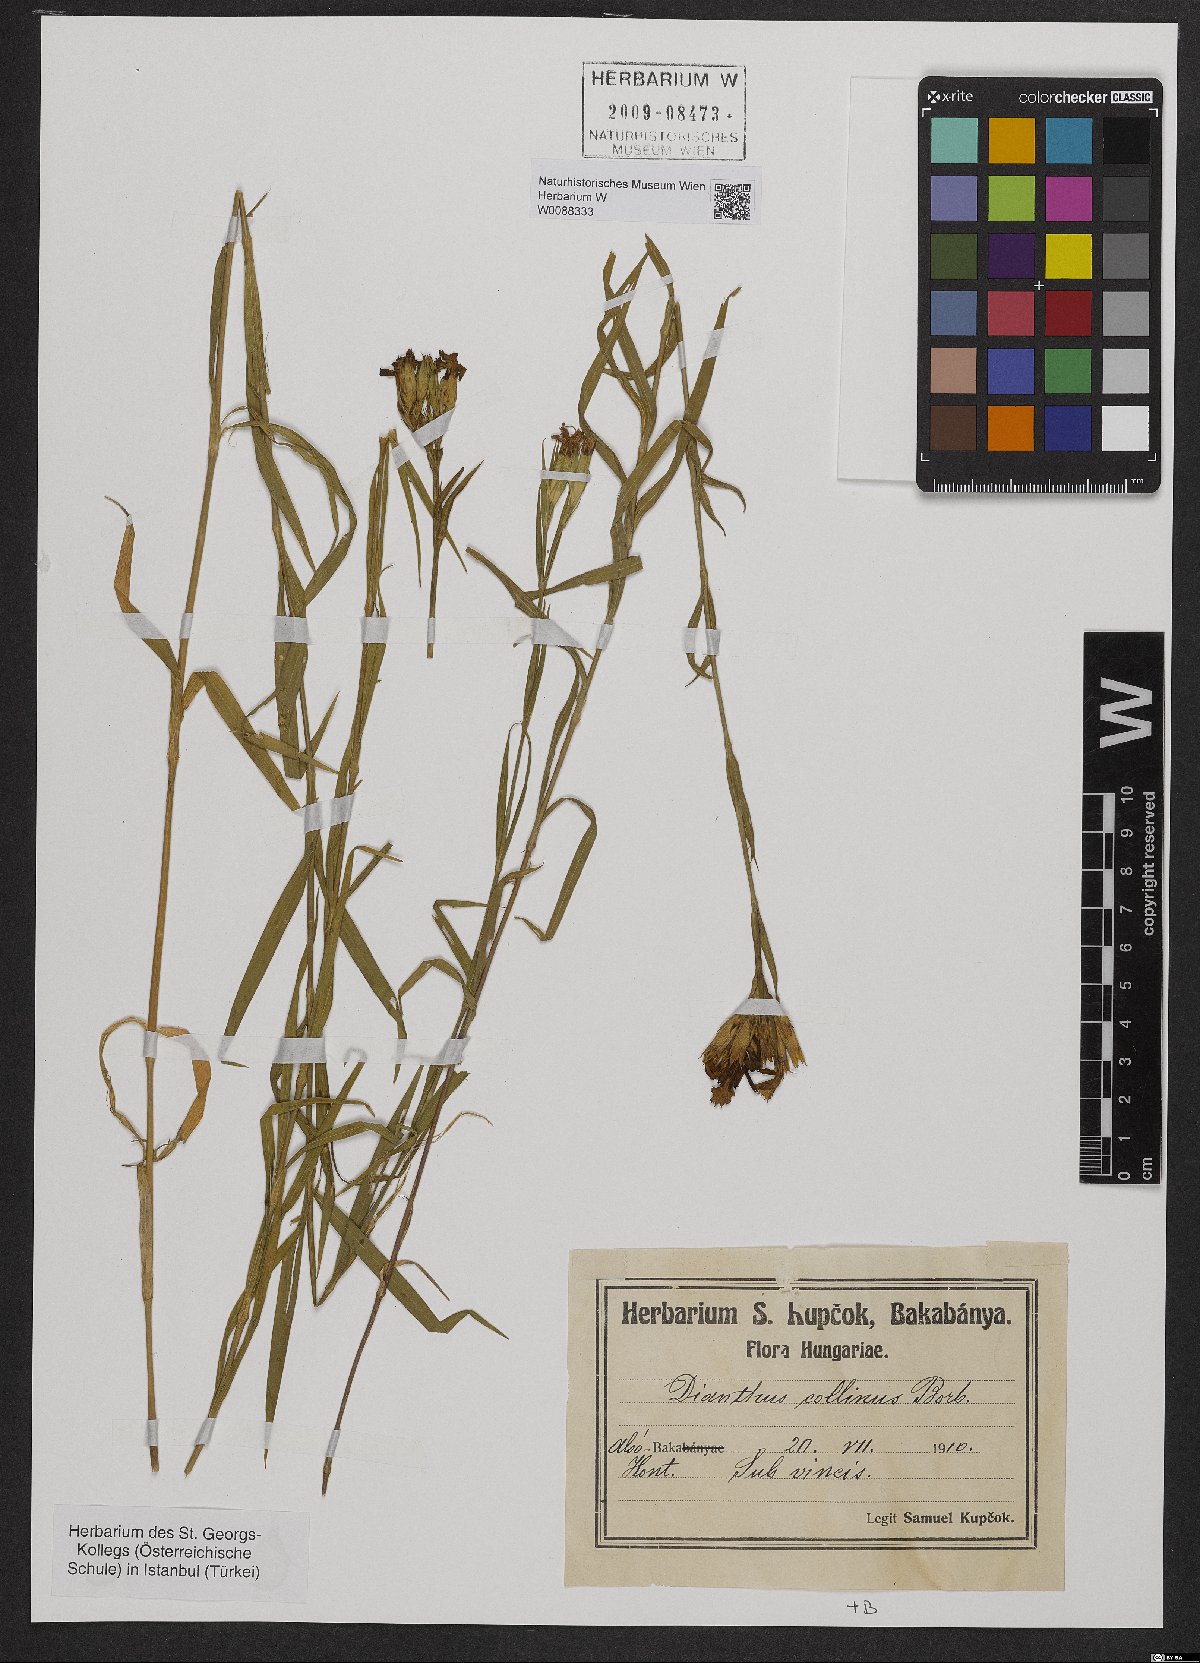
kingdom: Plantae
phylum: Tracheophyta
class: Magnoliopsida
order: Caryophyllales
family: Caryophyllaceae
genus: Dianthus
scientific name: Dianthus collinus
